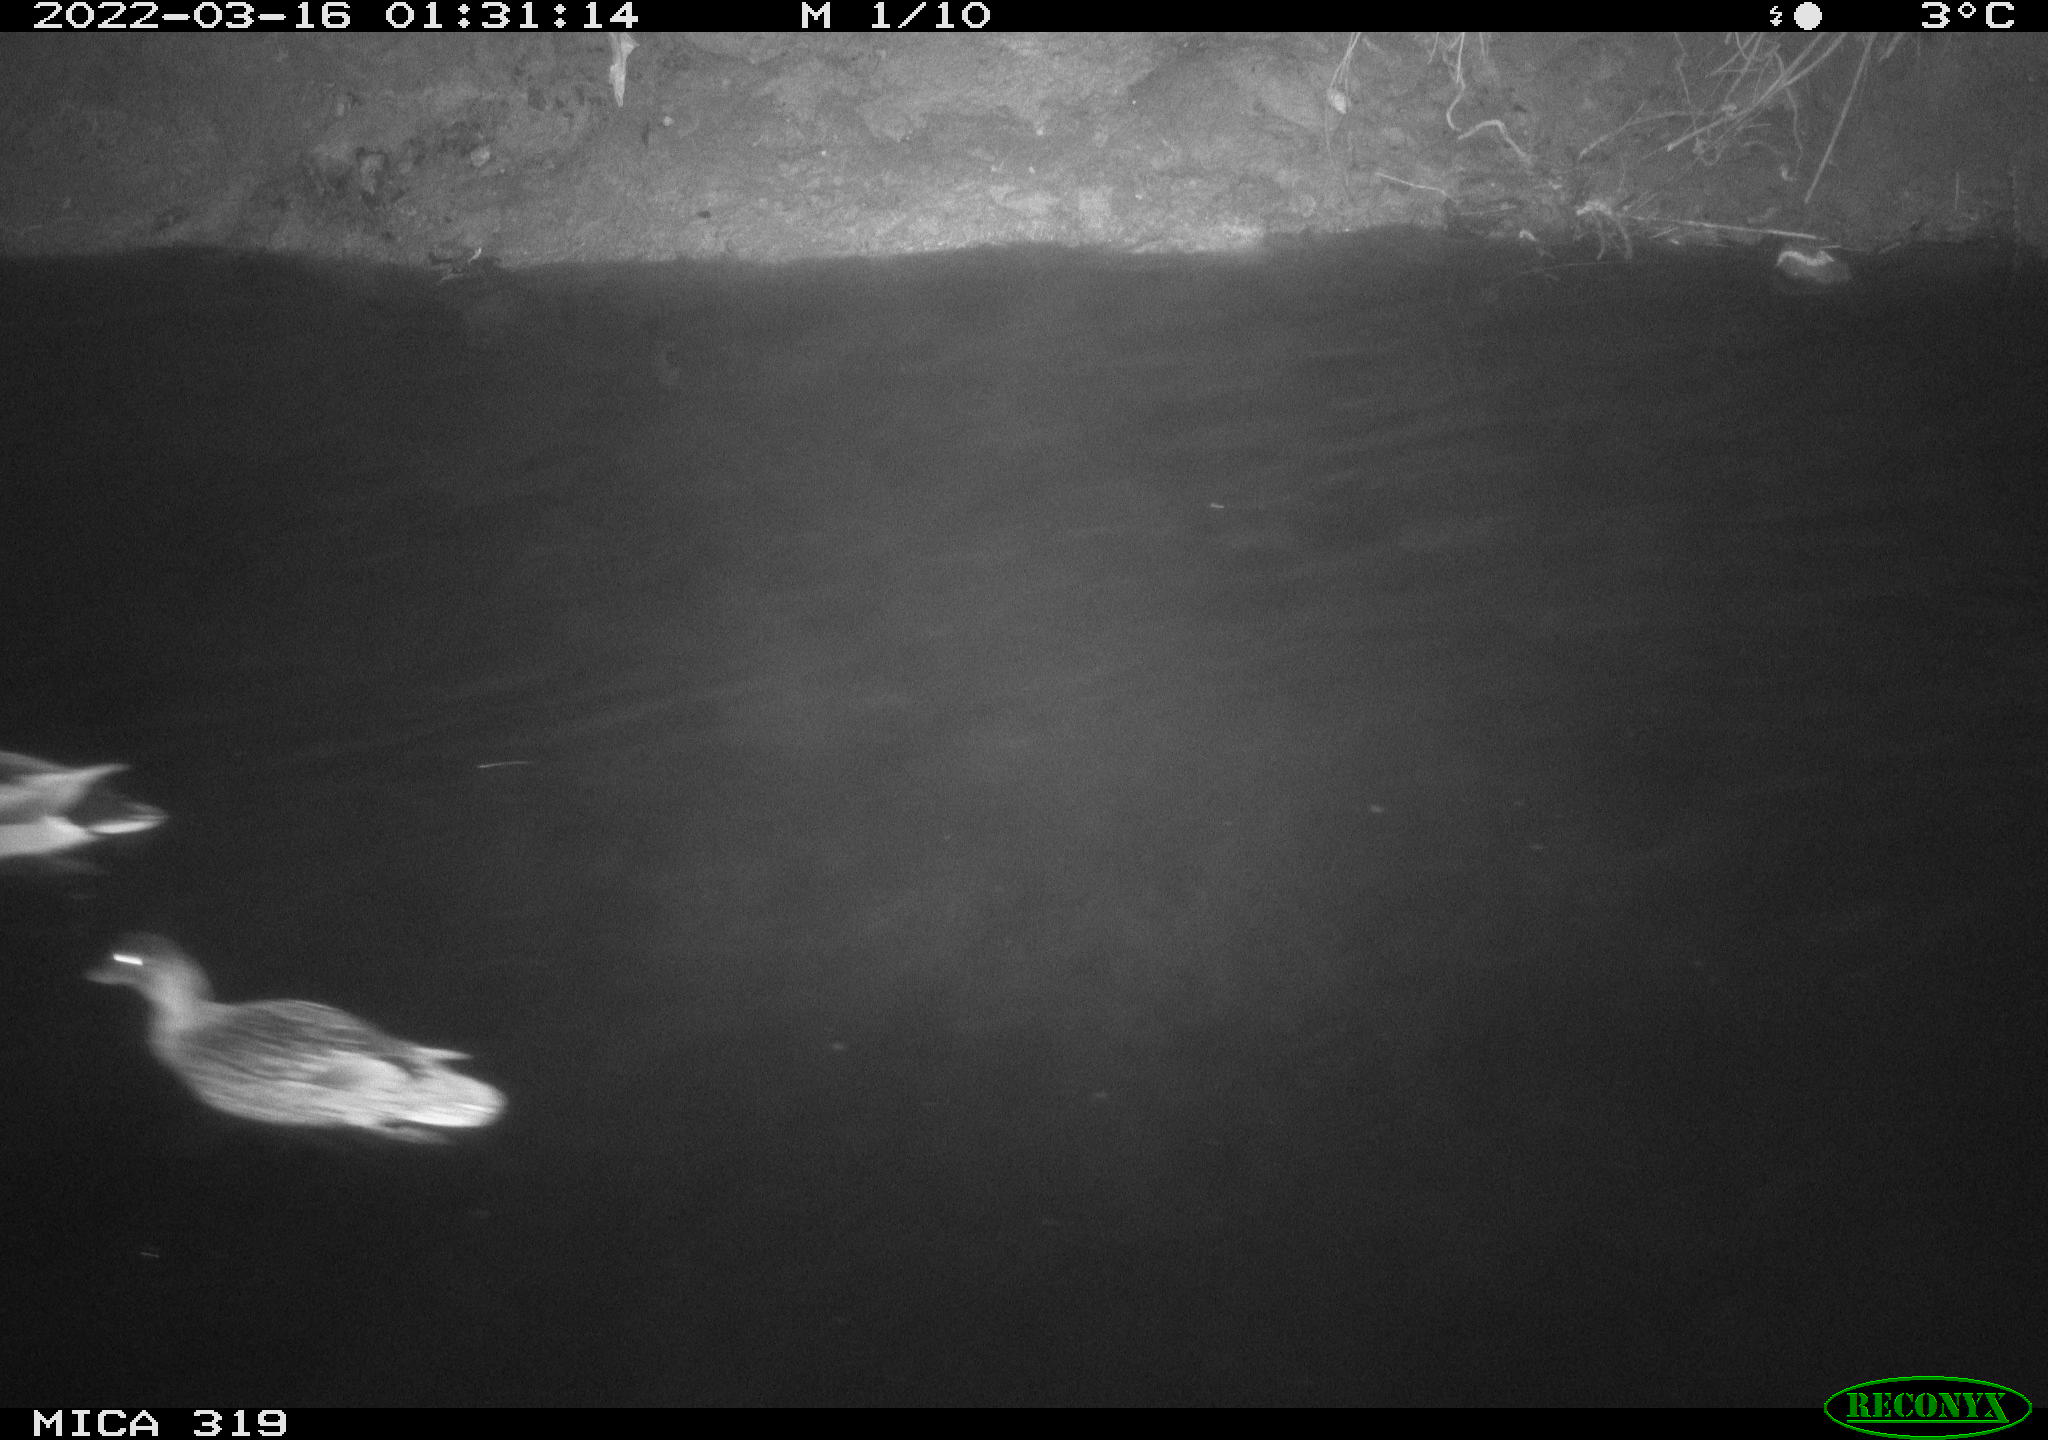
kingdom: Animalia
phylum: Chordata
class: Aves
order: Anseriformes
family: Anatidae
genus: Anas
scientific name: Anas platyrhynchos
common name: Mallard
